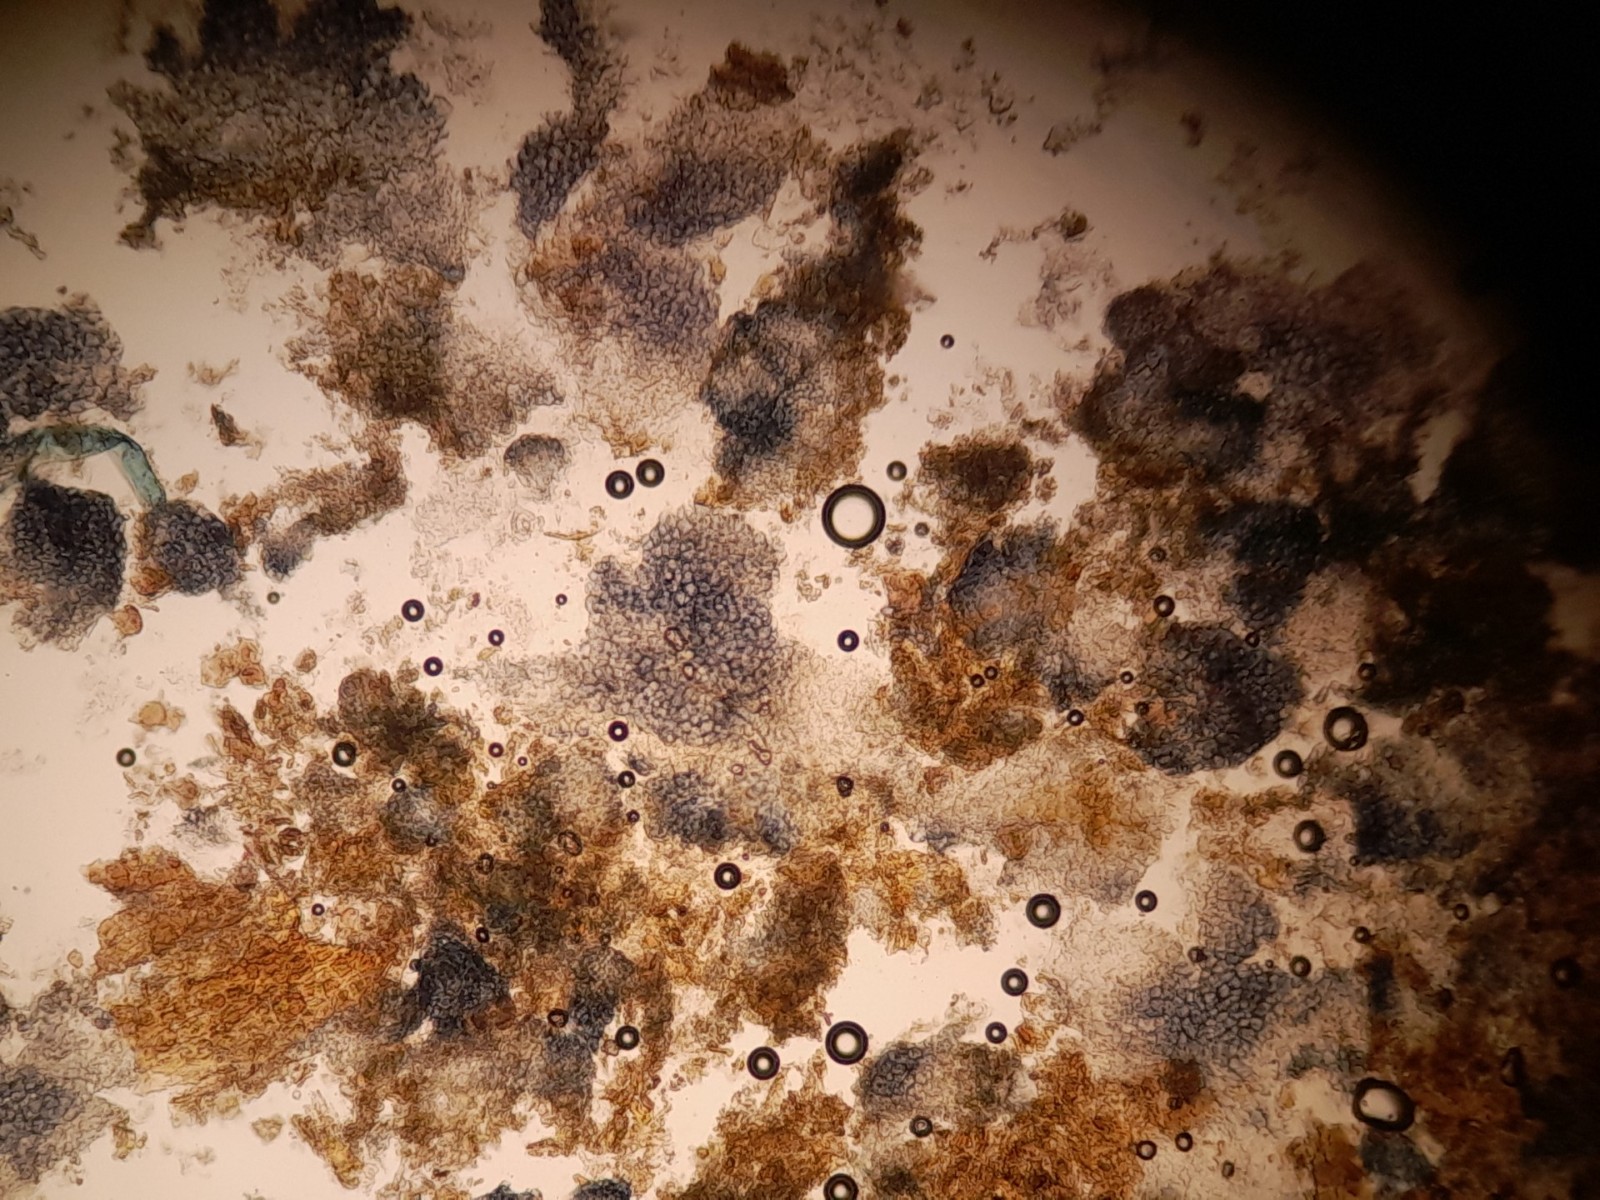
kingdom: Fungi
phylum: Ascomycota
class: Sordariomycetes
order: Hypocreales
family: Nectriaceae
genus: Fusarium
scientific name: Fusarium
